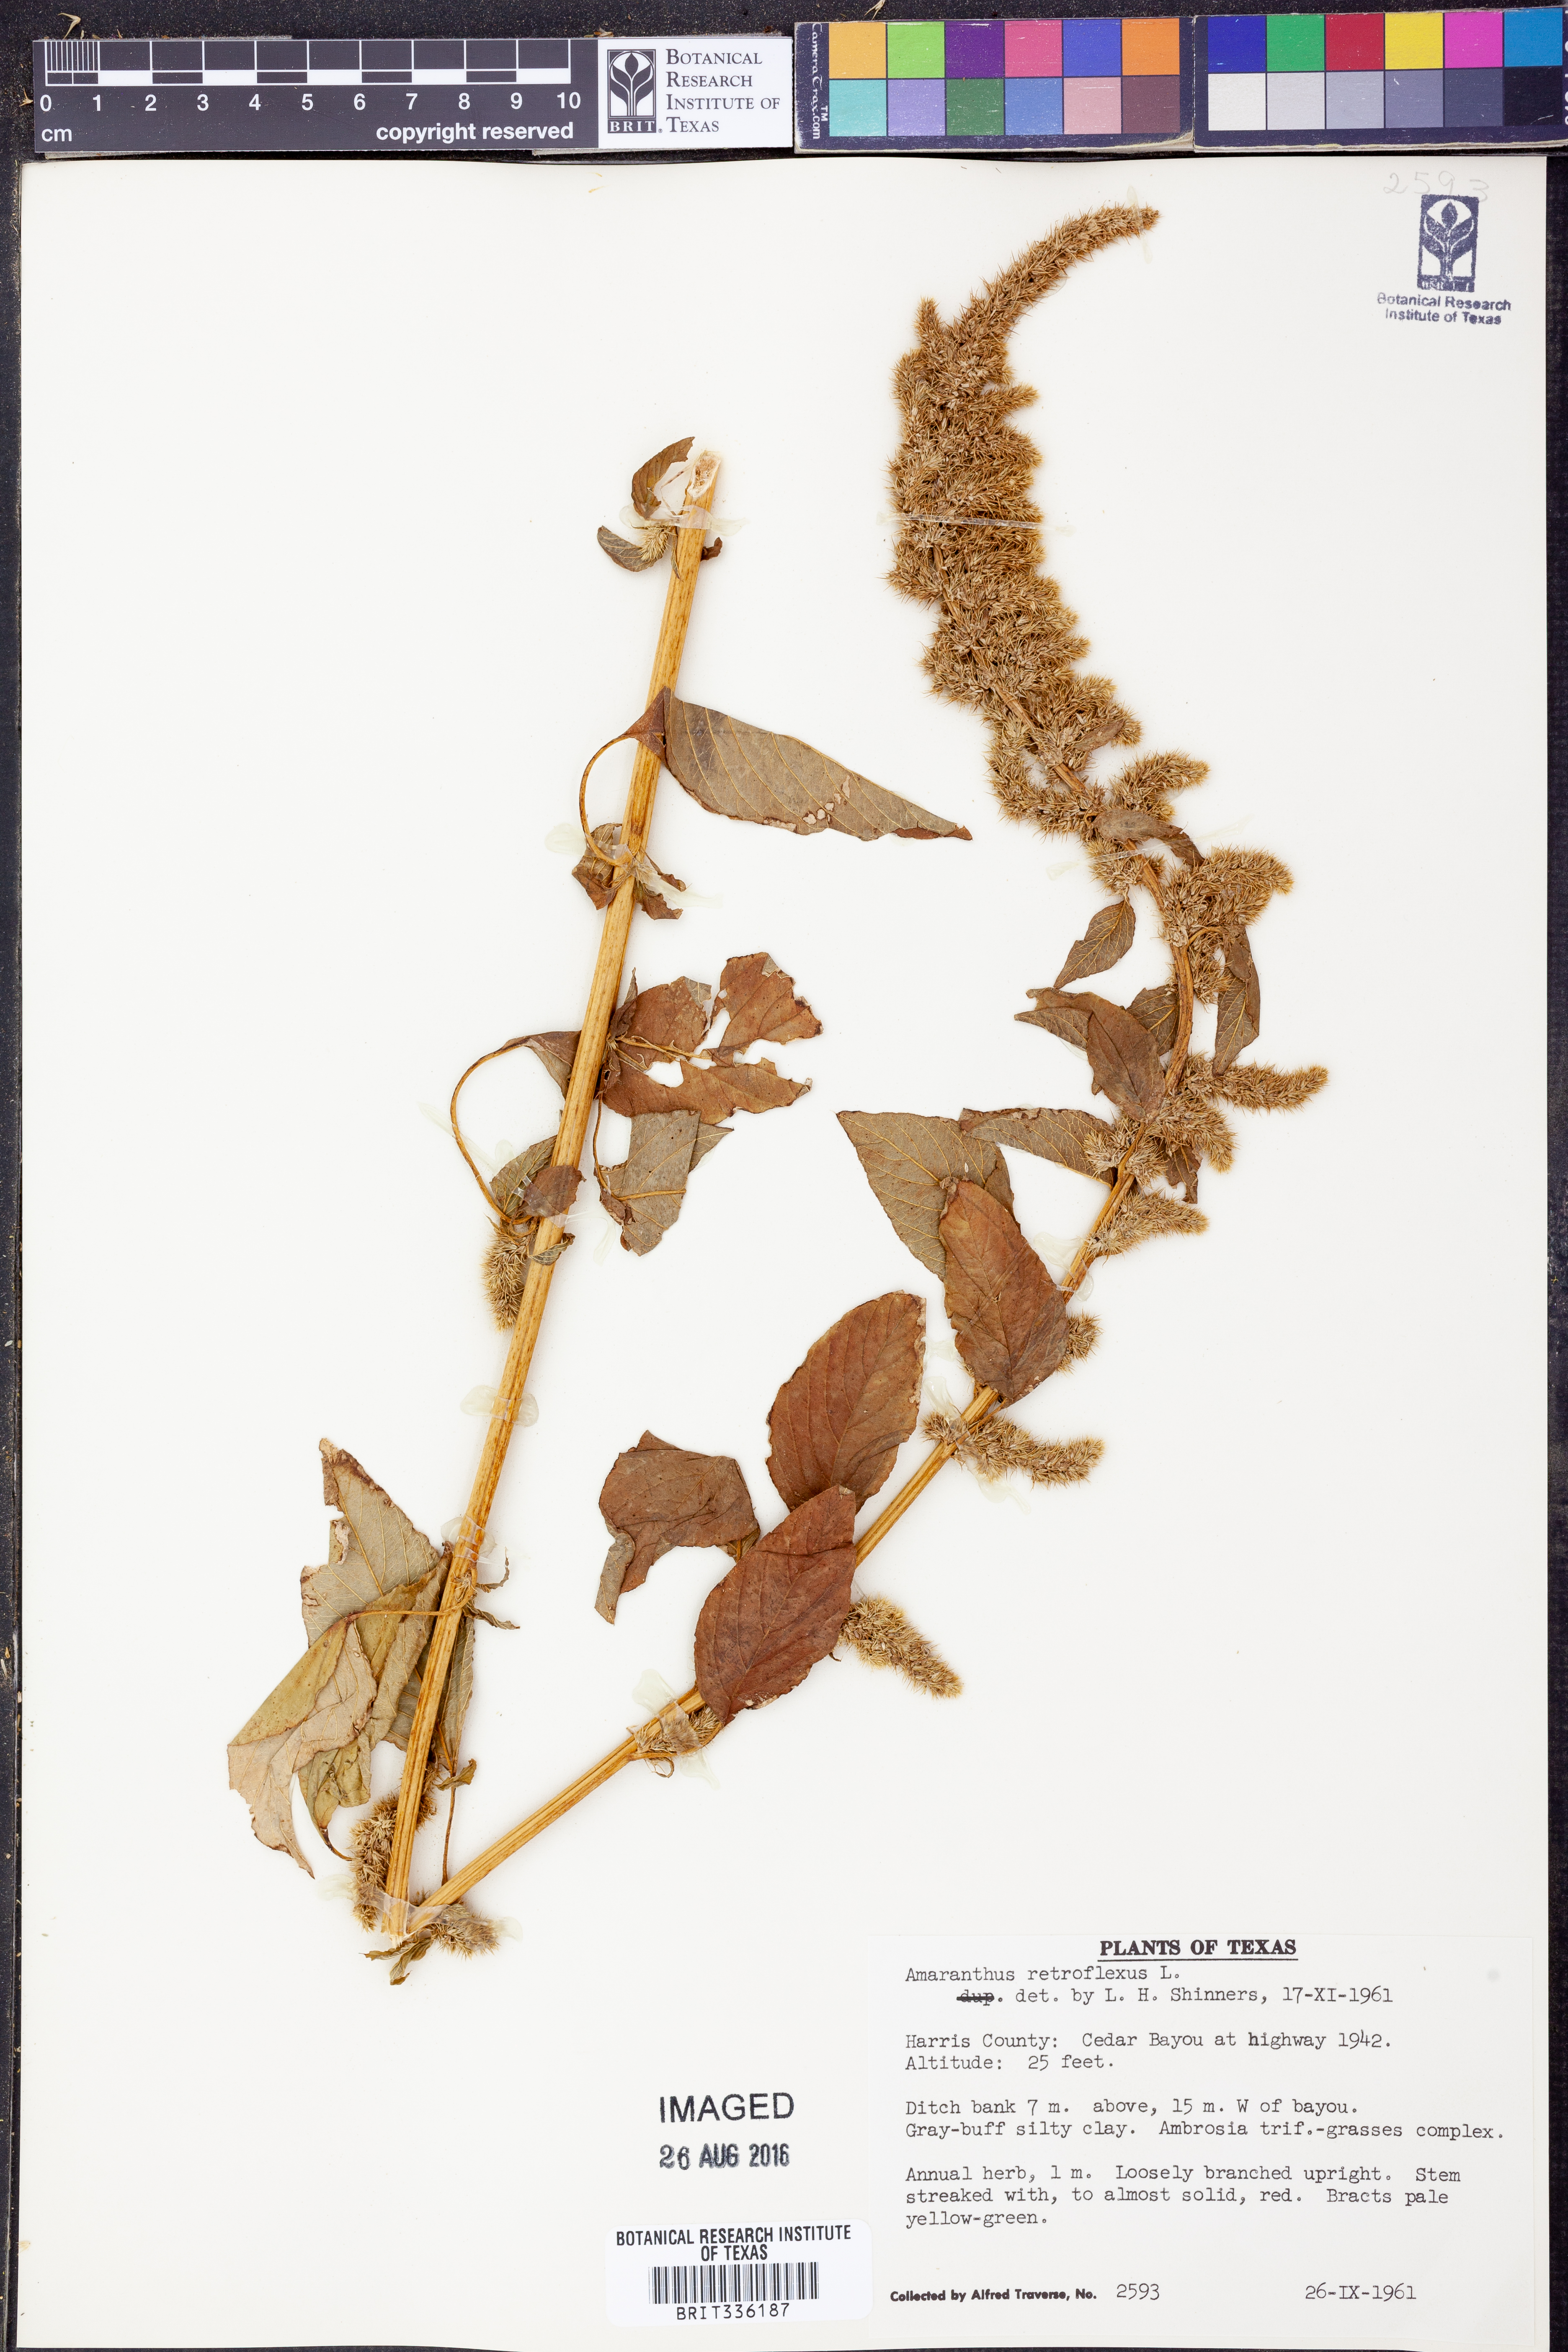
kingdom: Plantae
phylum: Tracheophyta
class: Magnoliopsida
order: Caryophyllales
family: Amaranthaceae
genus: Amaranthus
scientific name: Amaranthus retroflexus
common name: Redroot amaranth
